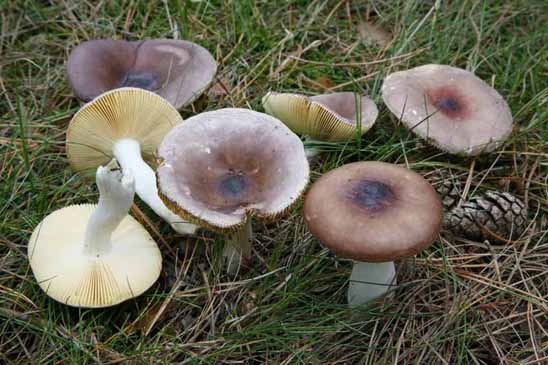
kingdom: Fungi
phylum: Basidiomycota
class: Agaricomycetes
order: Russulales
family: Russulaceae
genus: Russula
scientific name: Russula caerulea
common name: puklet skørhat
